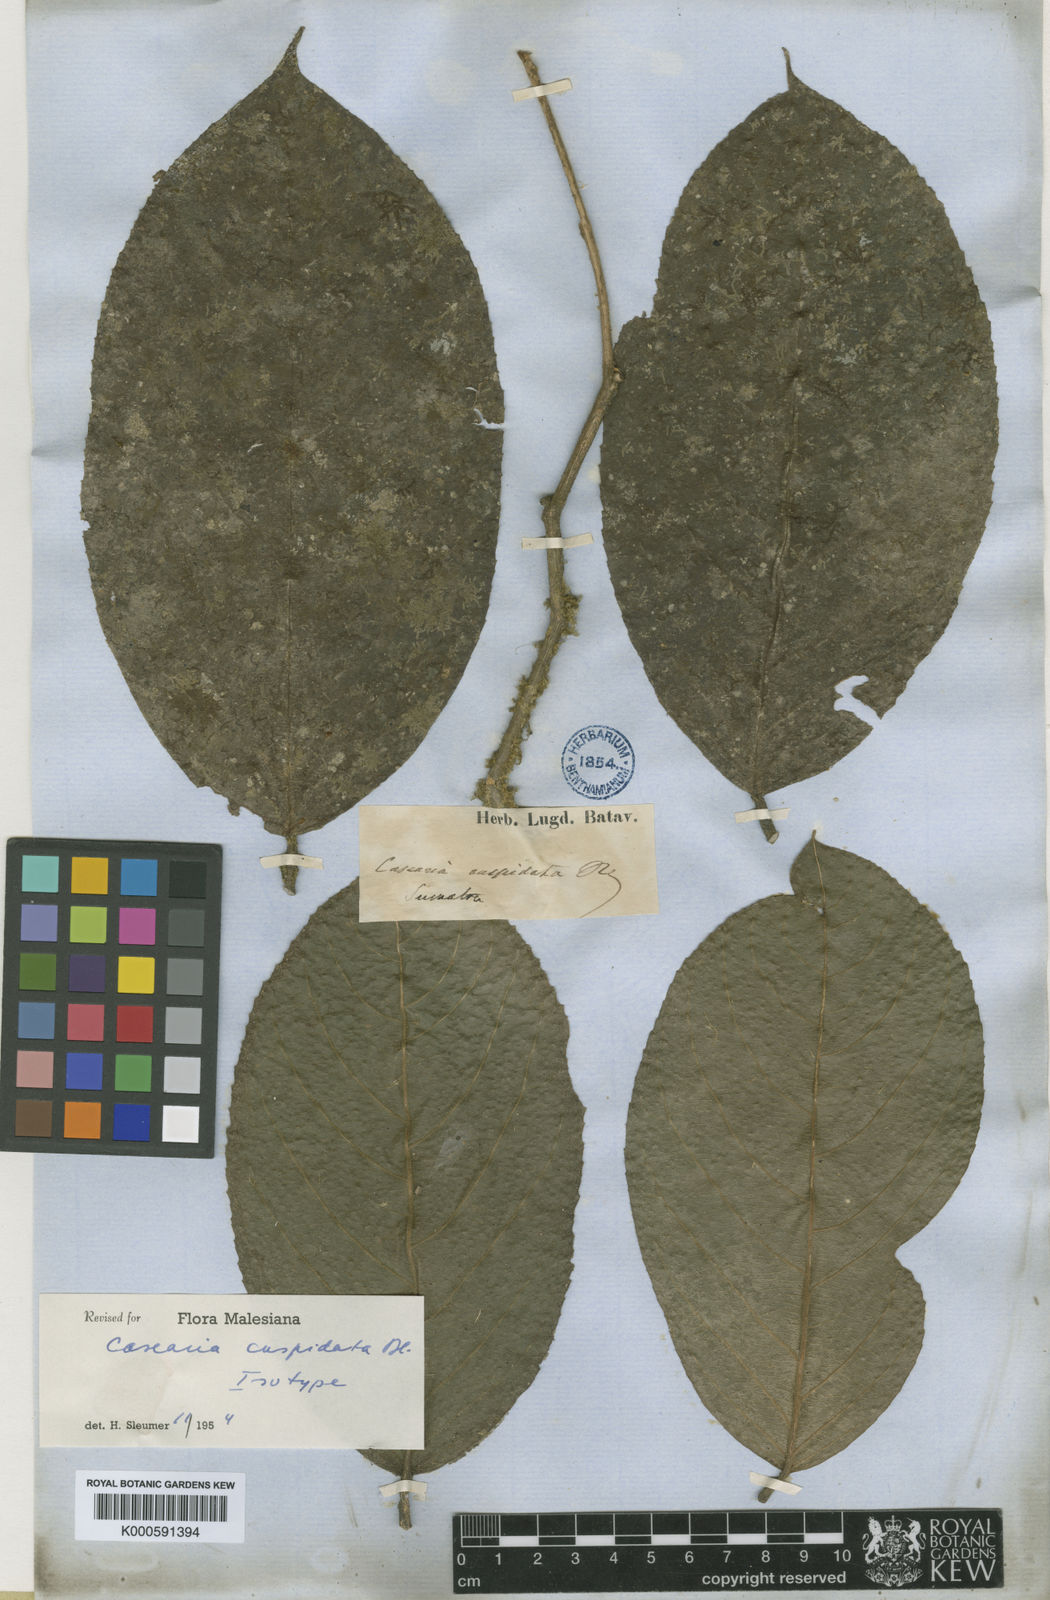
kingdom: Plantae
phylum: Tracheophyta
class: Magnoliopsida
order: Malpighiales
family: Salicaceae
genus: Casearia
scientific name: Casearia cuspidata
